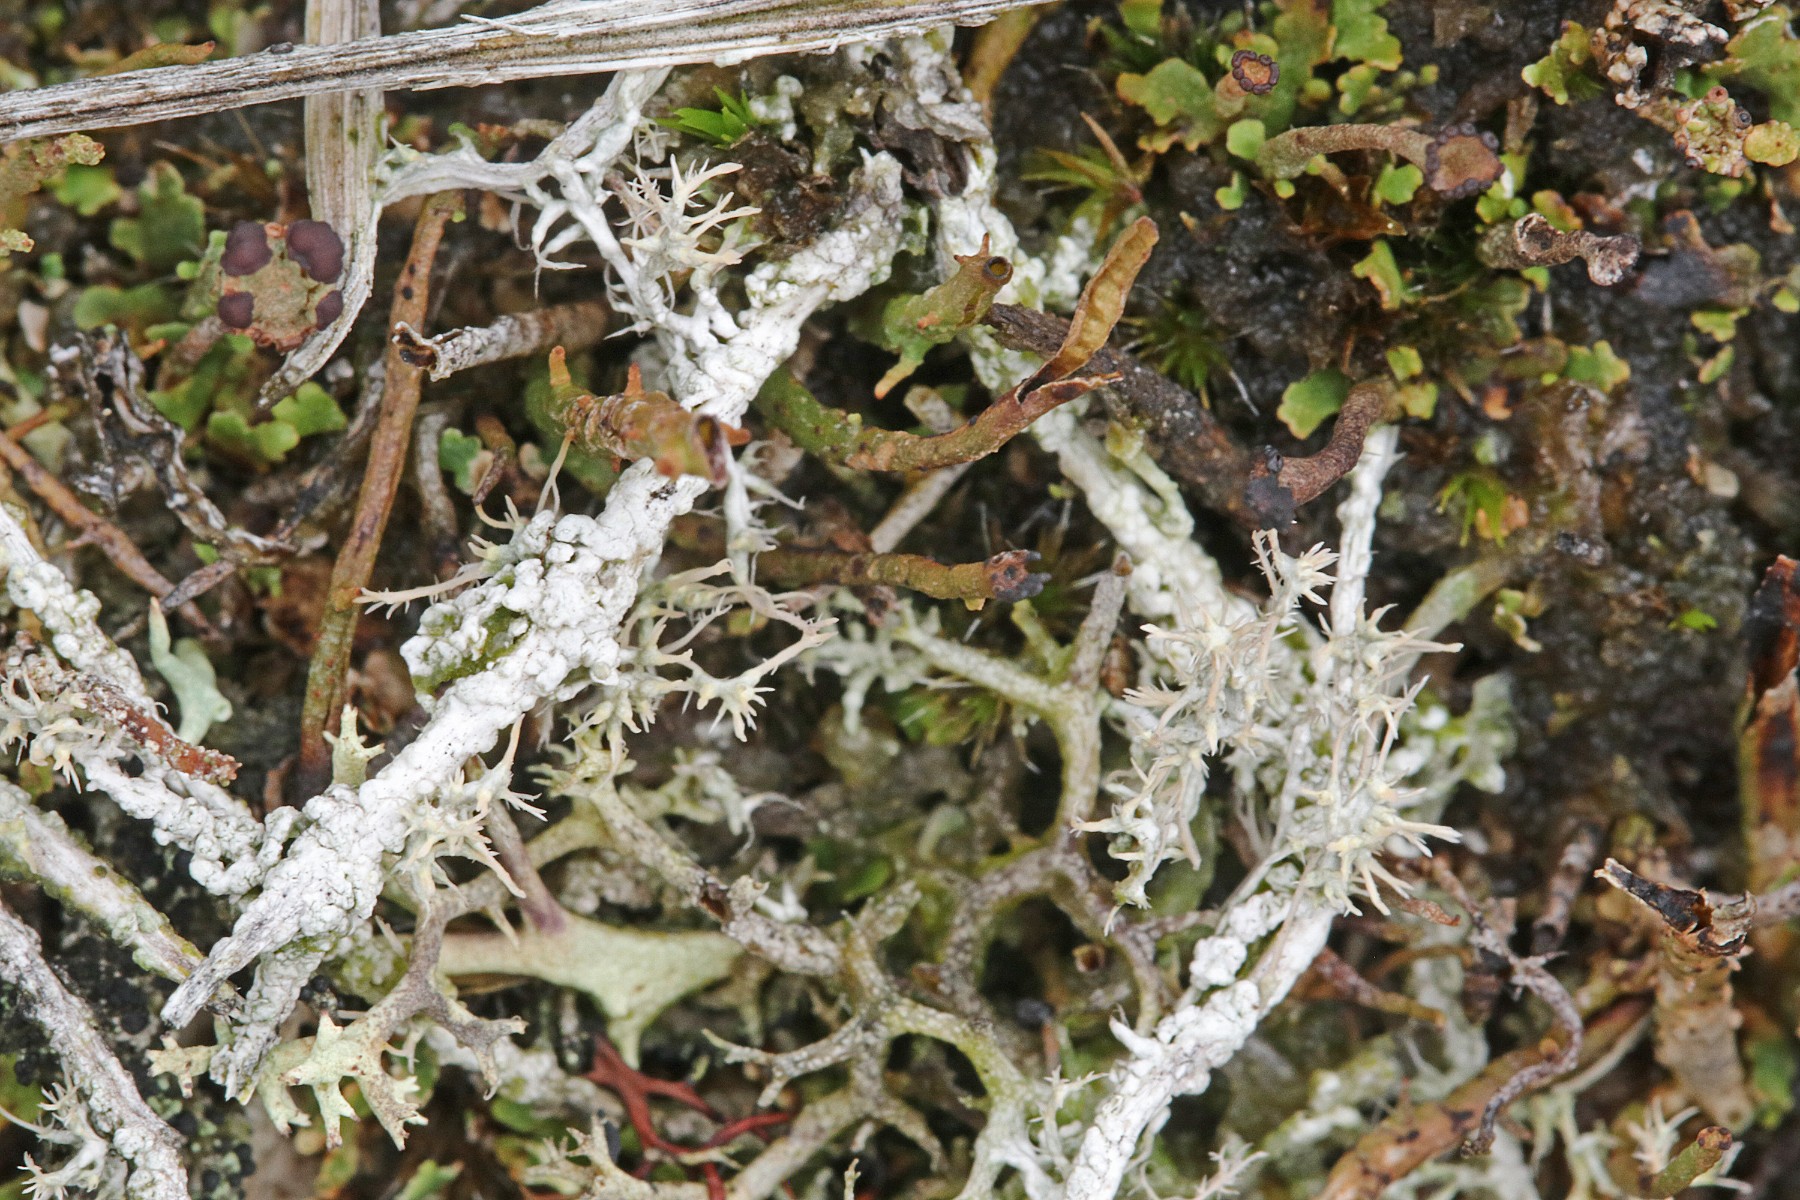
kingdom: Fungi
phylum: Ascomycota
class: Lecanoromycetes
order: Pertusariales
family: Ochrolechiaceae
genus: Ochrolechia
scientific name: Ochrolechia frigida
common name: fjeld-blegskivelav
